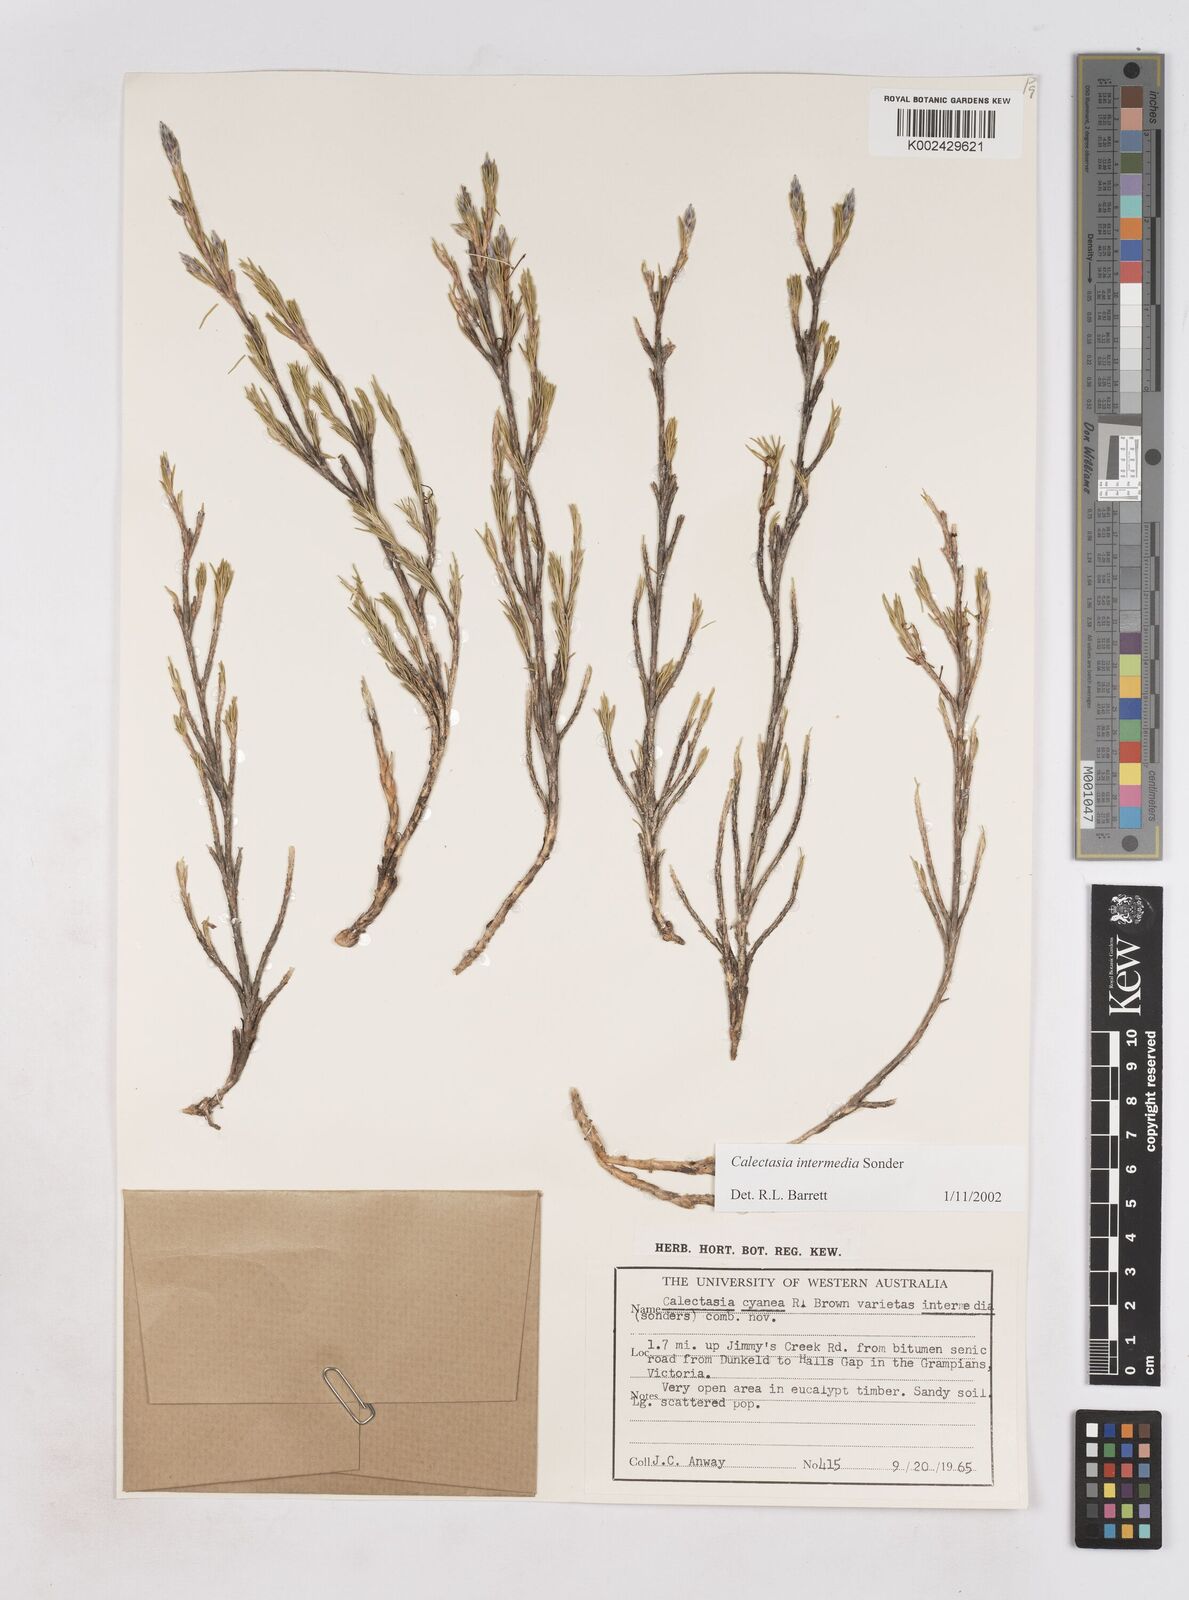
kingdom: Plantae
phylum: Tracheophyta
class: Liliopsida
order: Arecales
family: Dasypogonaceae
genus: Calectasia
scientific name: Calectasia intermedia
